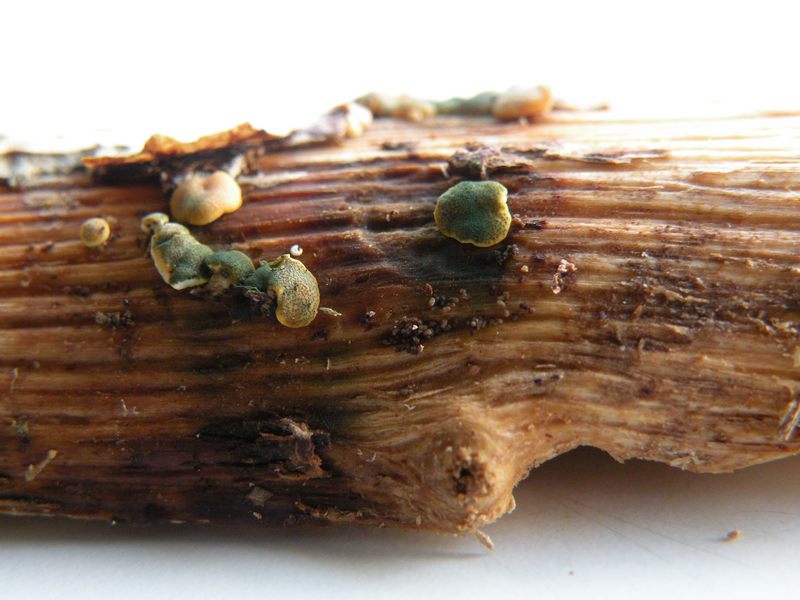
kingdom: Fungi
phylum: Ascomycota
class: Sordariomycetes
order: Hypocreales
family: Hypocreaceae
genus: Trichoderma
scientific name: Trichoderma aureoviride
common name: æggegul kødkerne
